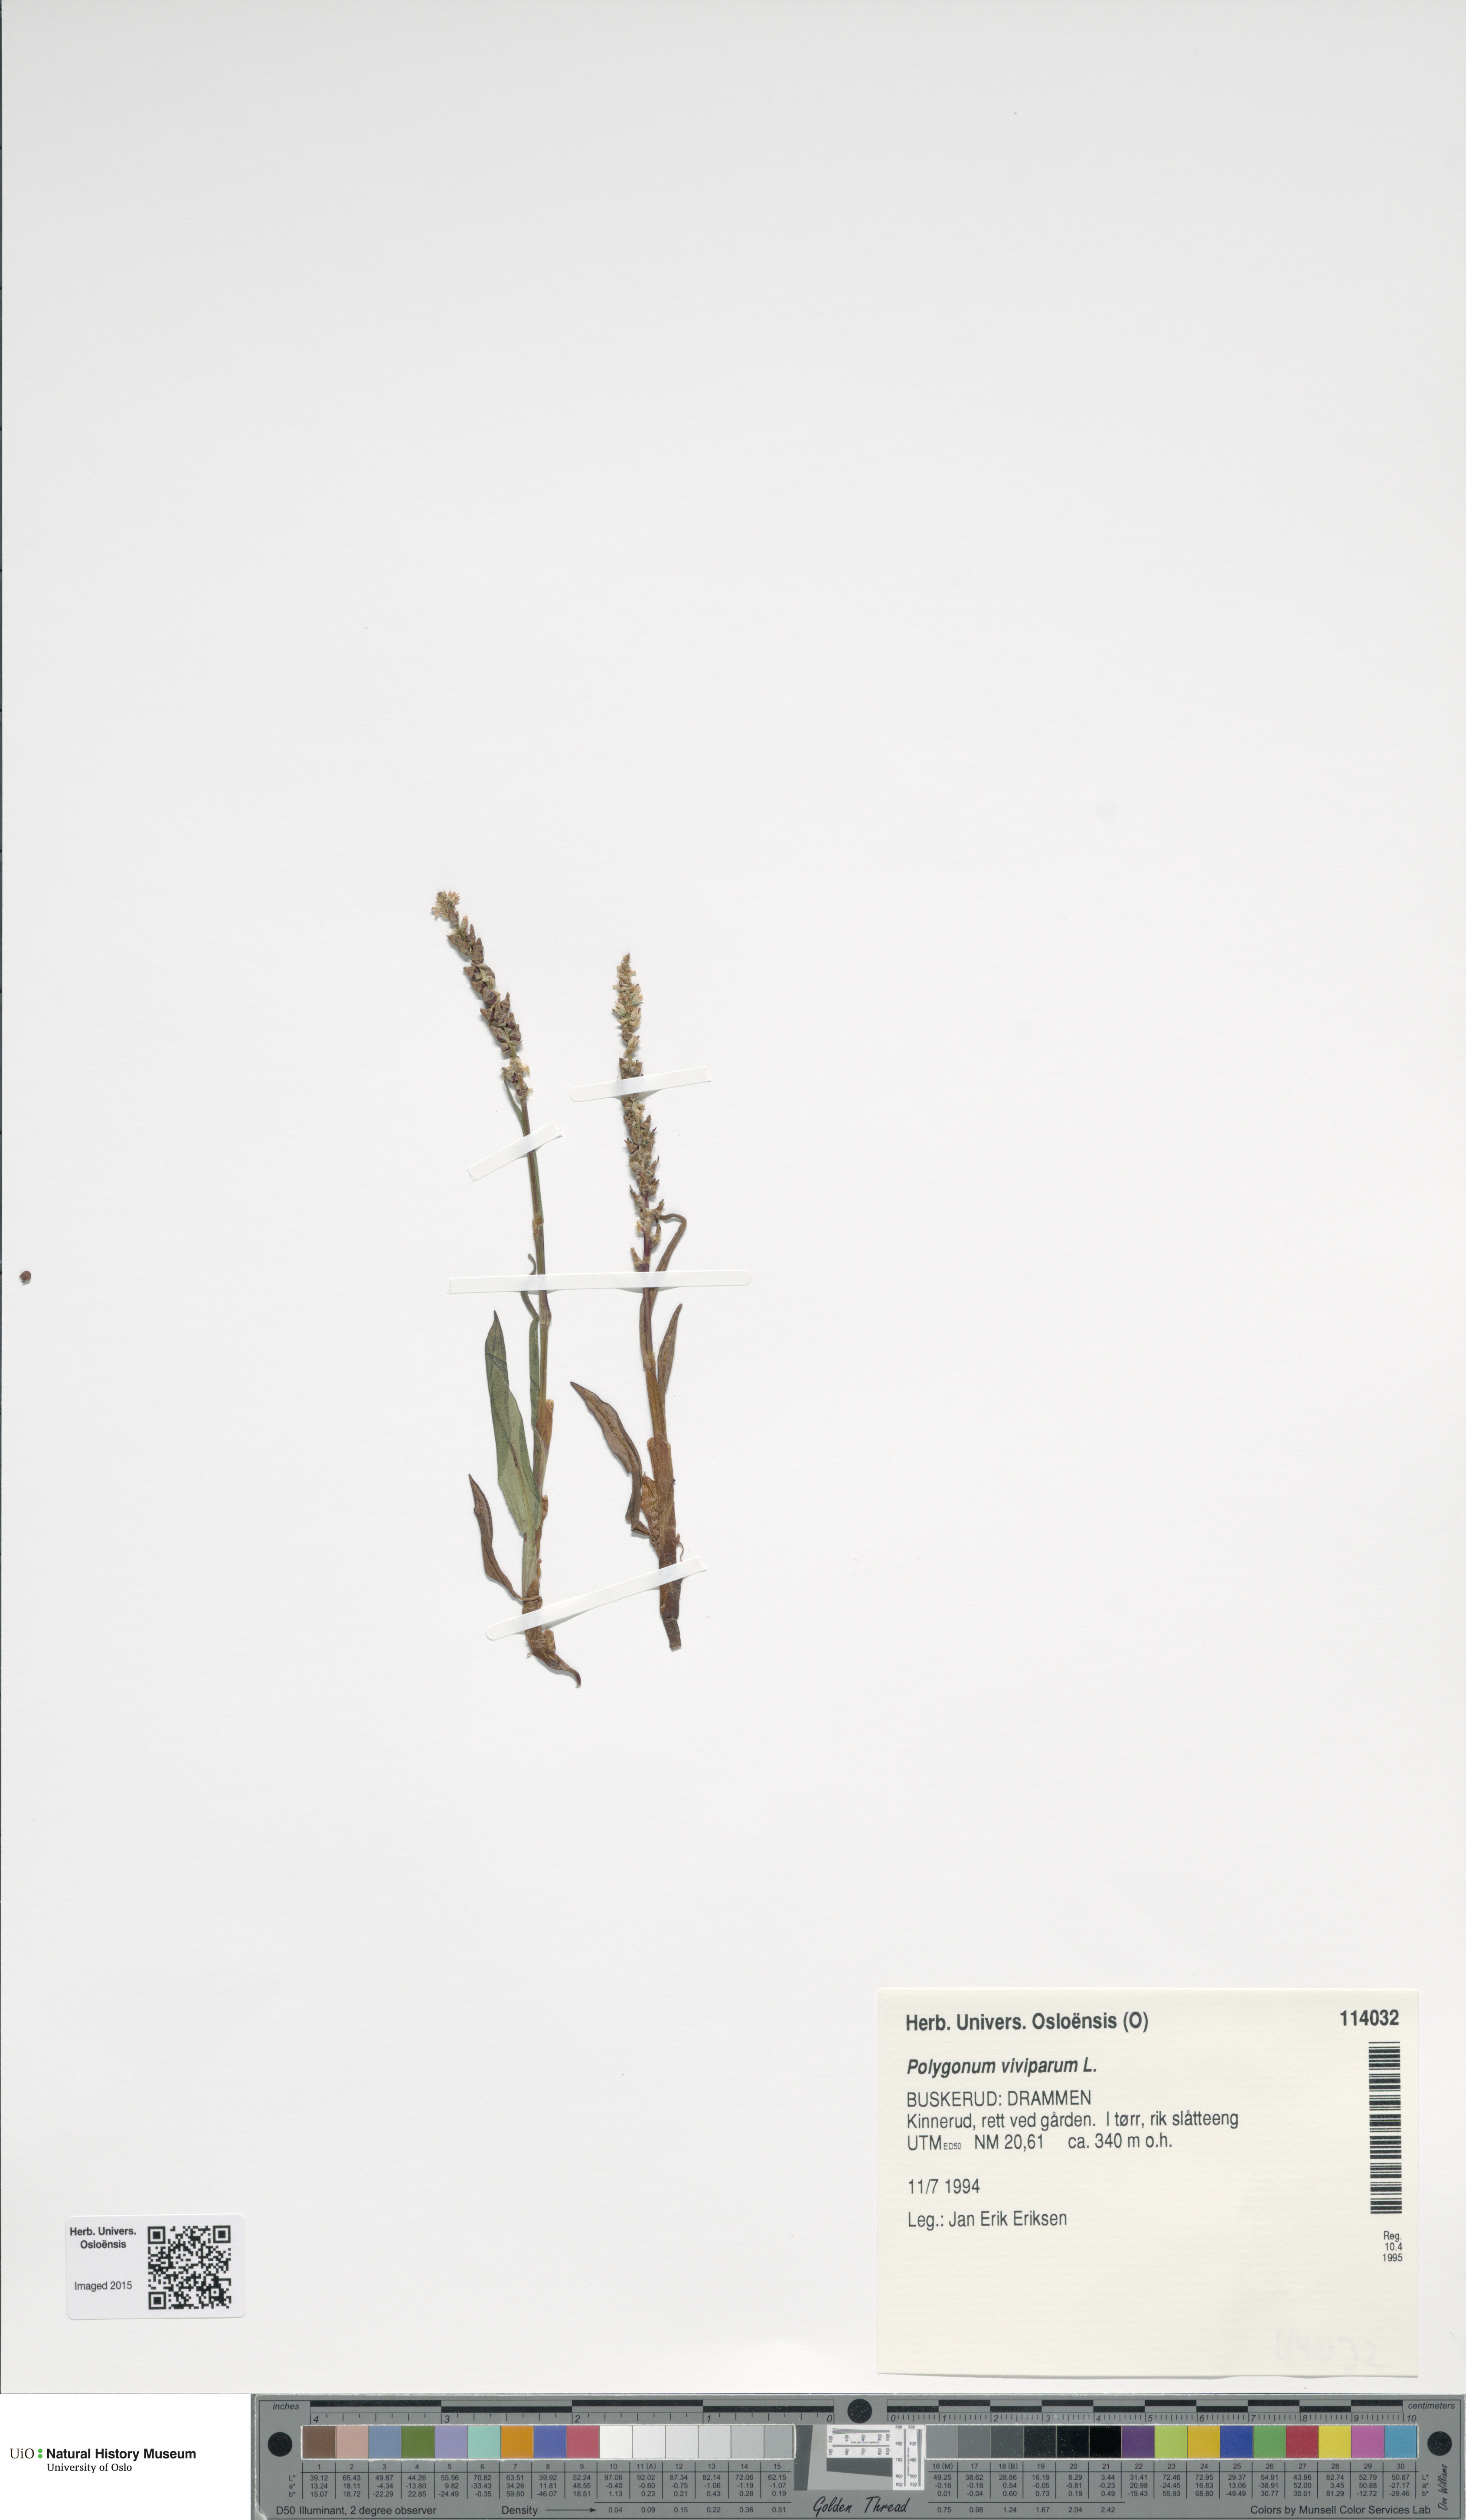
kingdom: Plantae
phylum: Tracheophyta
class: Magnoliopsida
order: Caryophyllales
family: Polygonaceae
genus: Bistorta
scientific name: Bistorta vivipara
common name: Alpine bistort
